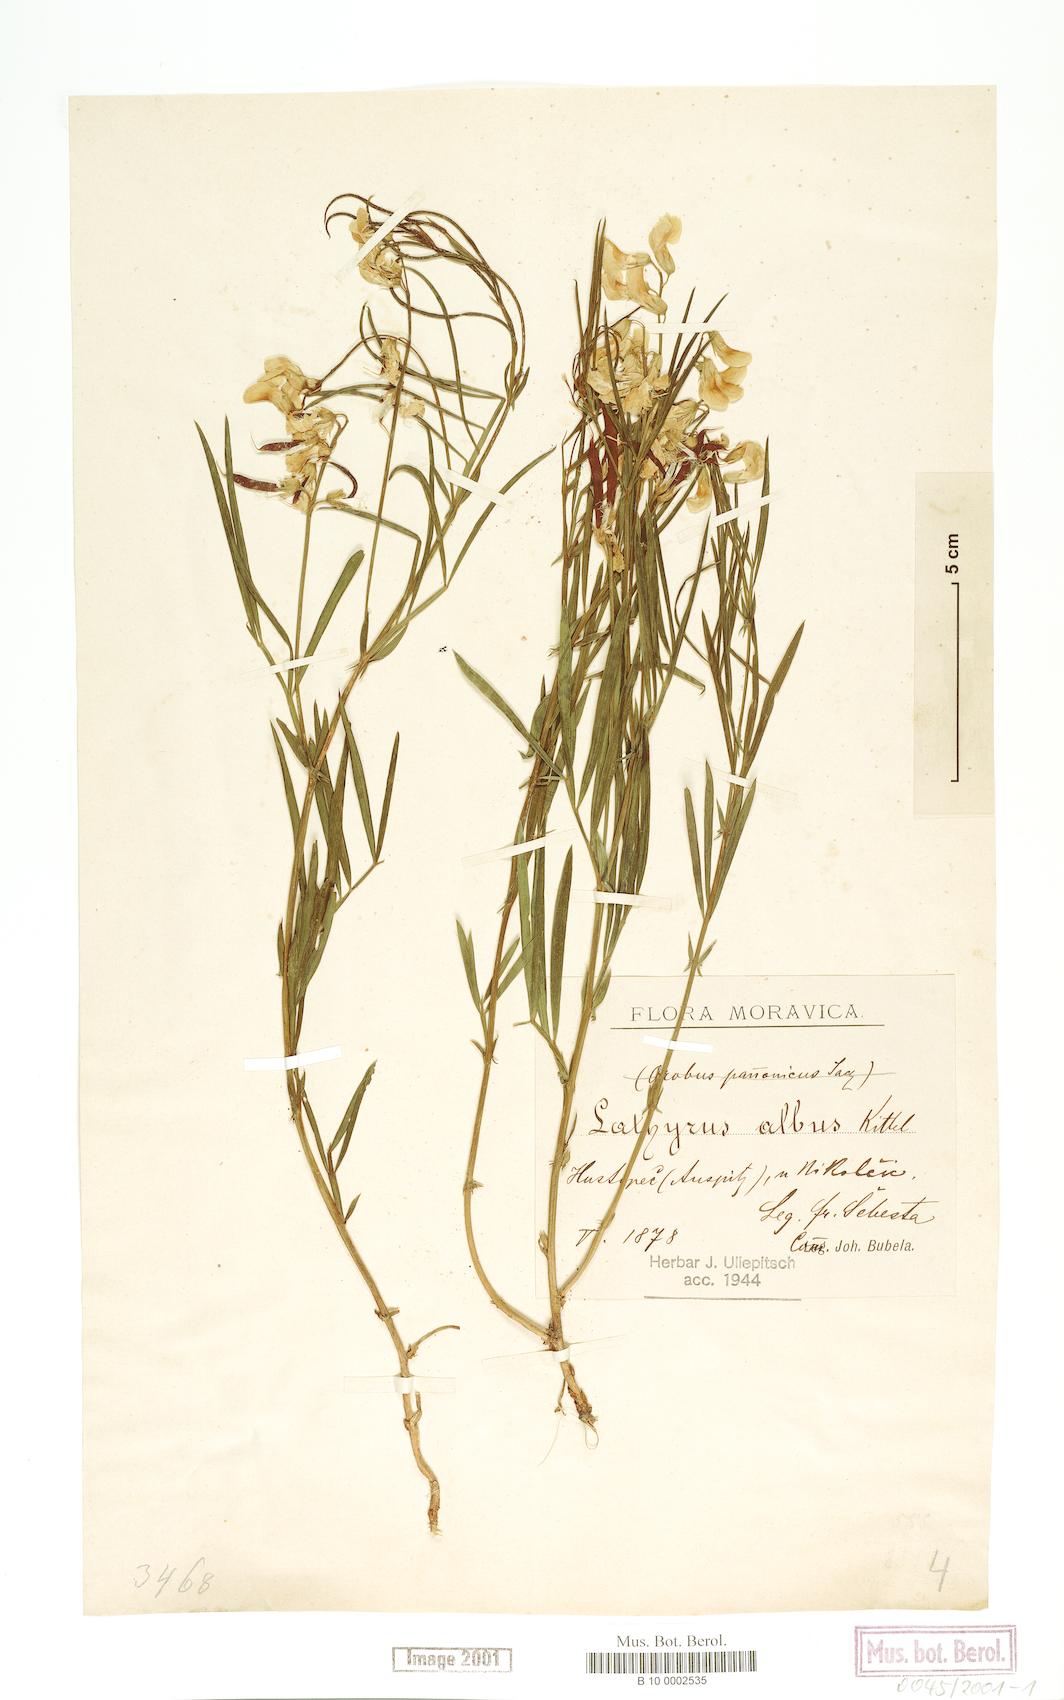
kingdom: Plantae
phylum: Tracheophyta
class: Magnoliopsida
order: Fabales
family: Fabaceae
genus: Lathyrus
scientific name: Lathyrus
